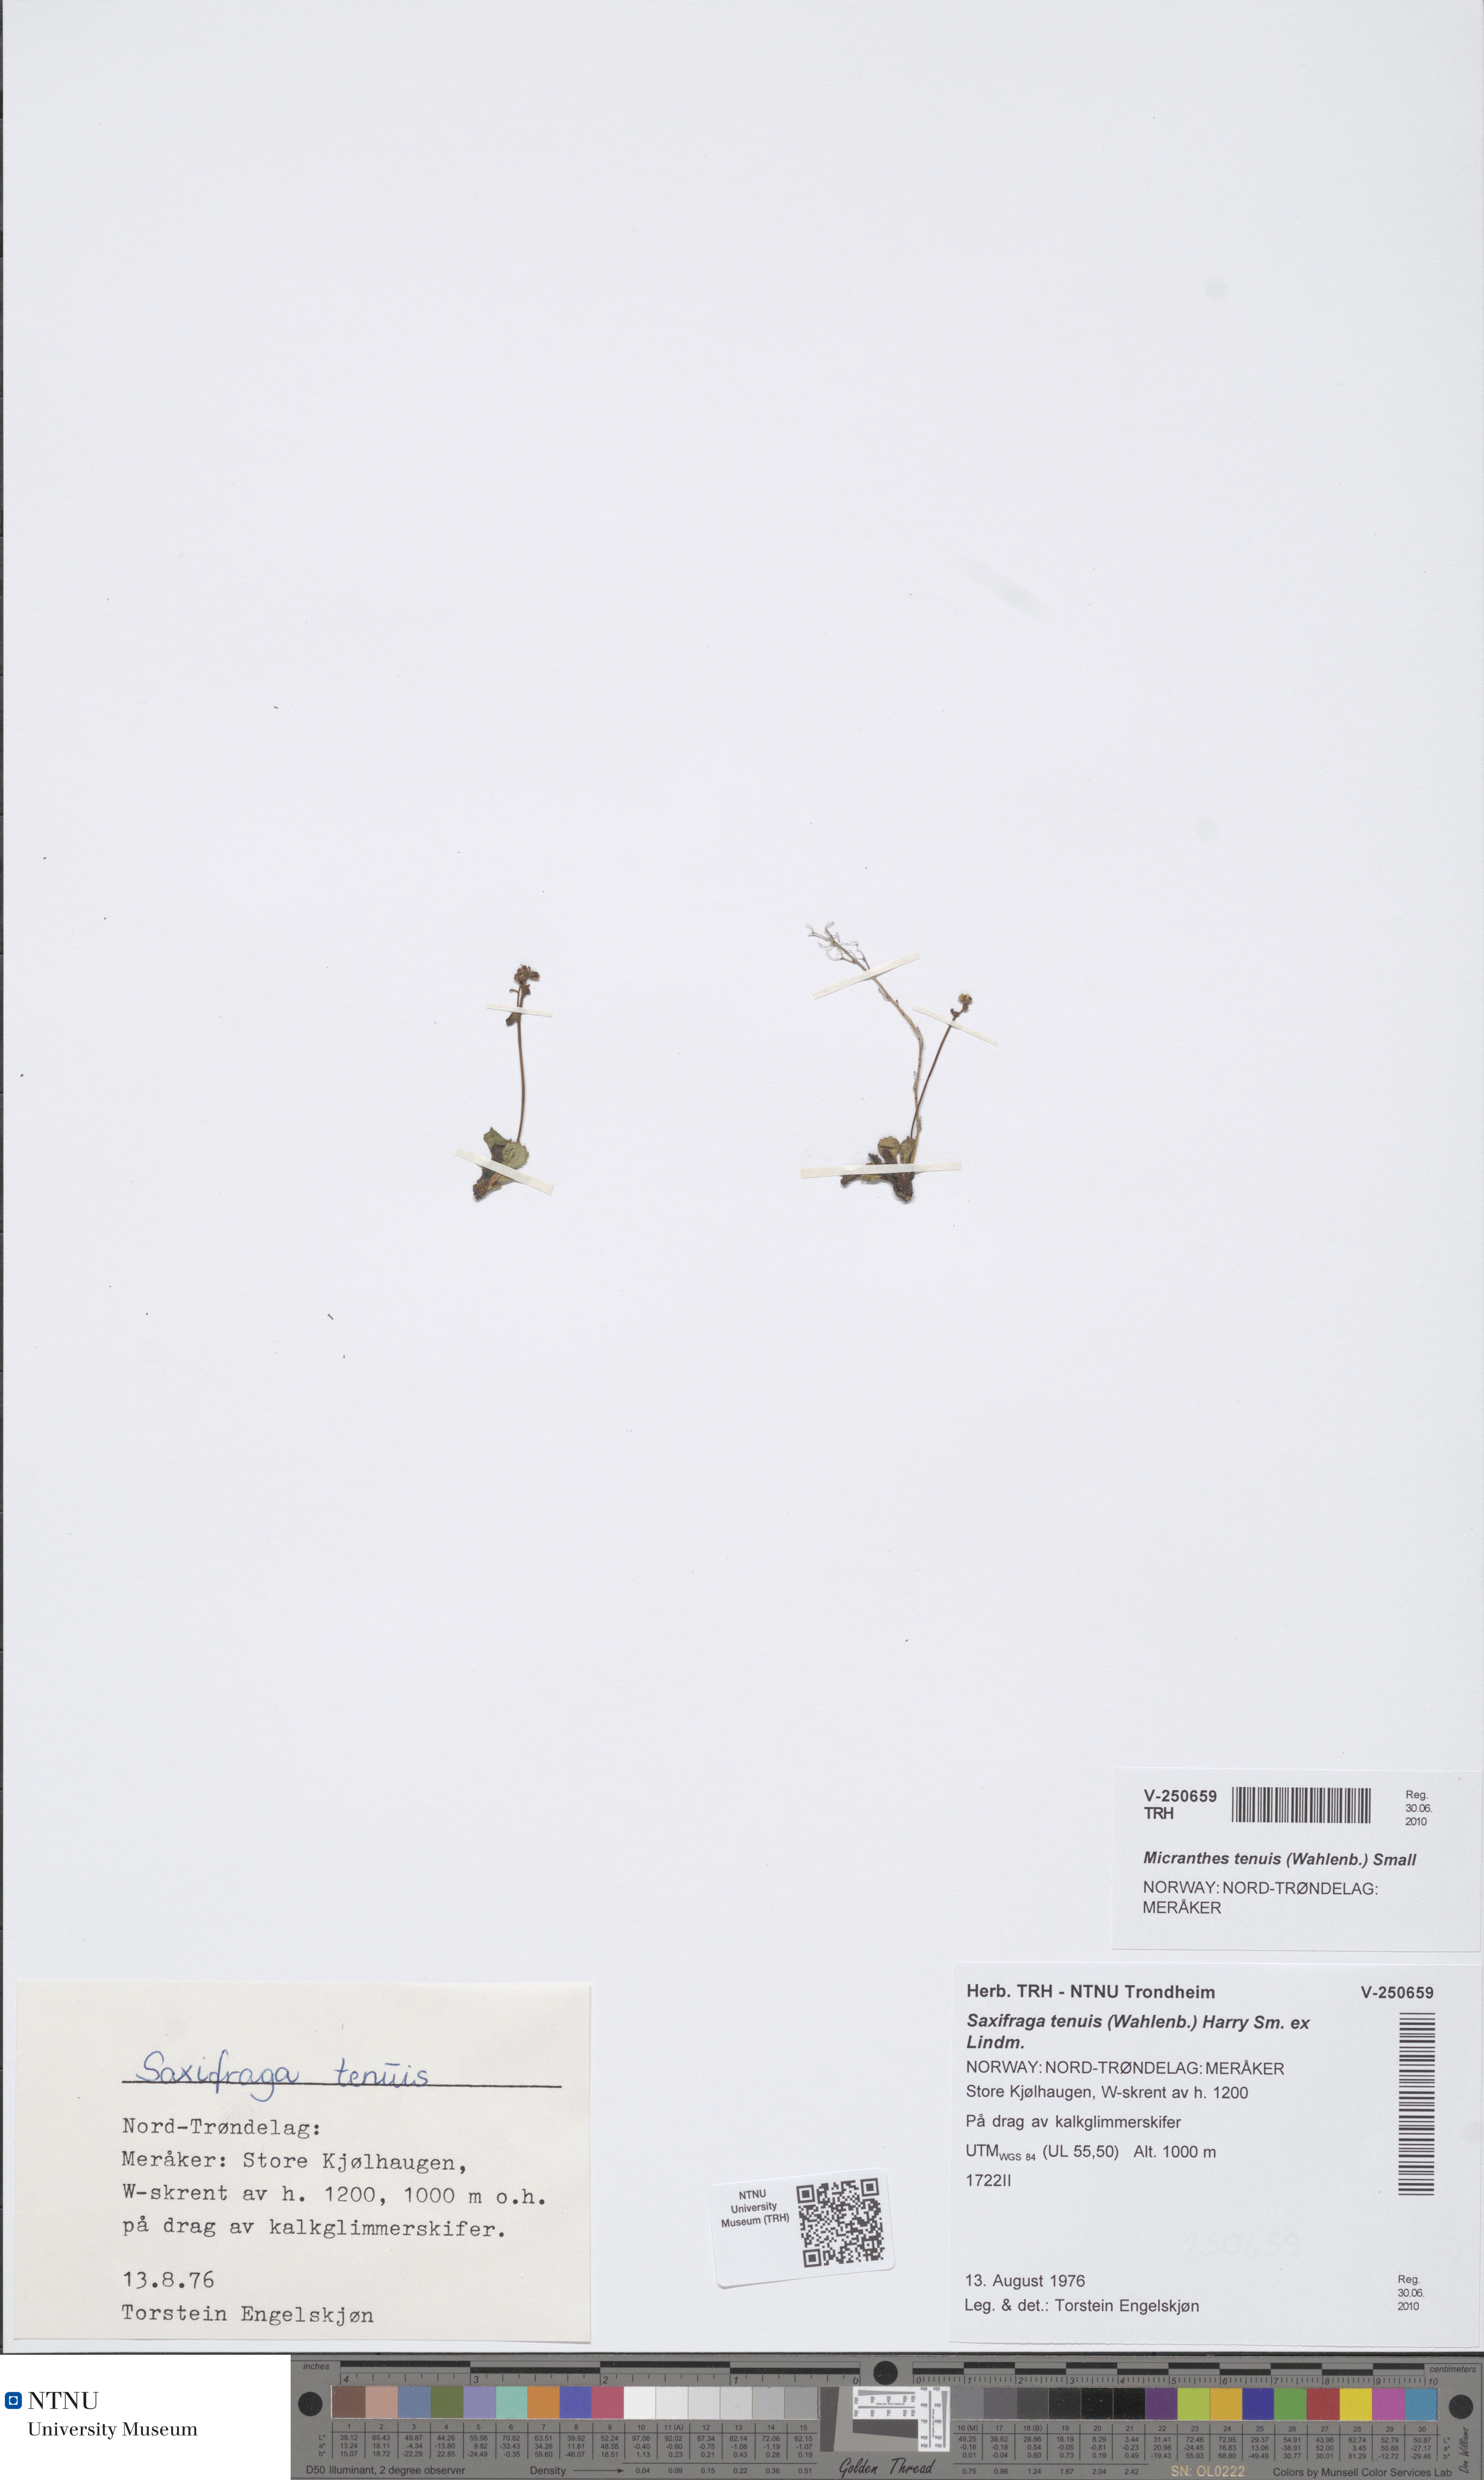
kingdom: Plantae
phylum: Tracheophyta
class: Magnoliopsida
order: Saxifragales
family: Saxifragaceae
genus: Micranthes
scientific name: Micranthes tenuis
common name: Ottertail pass saxifrage
